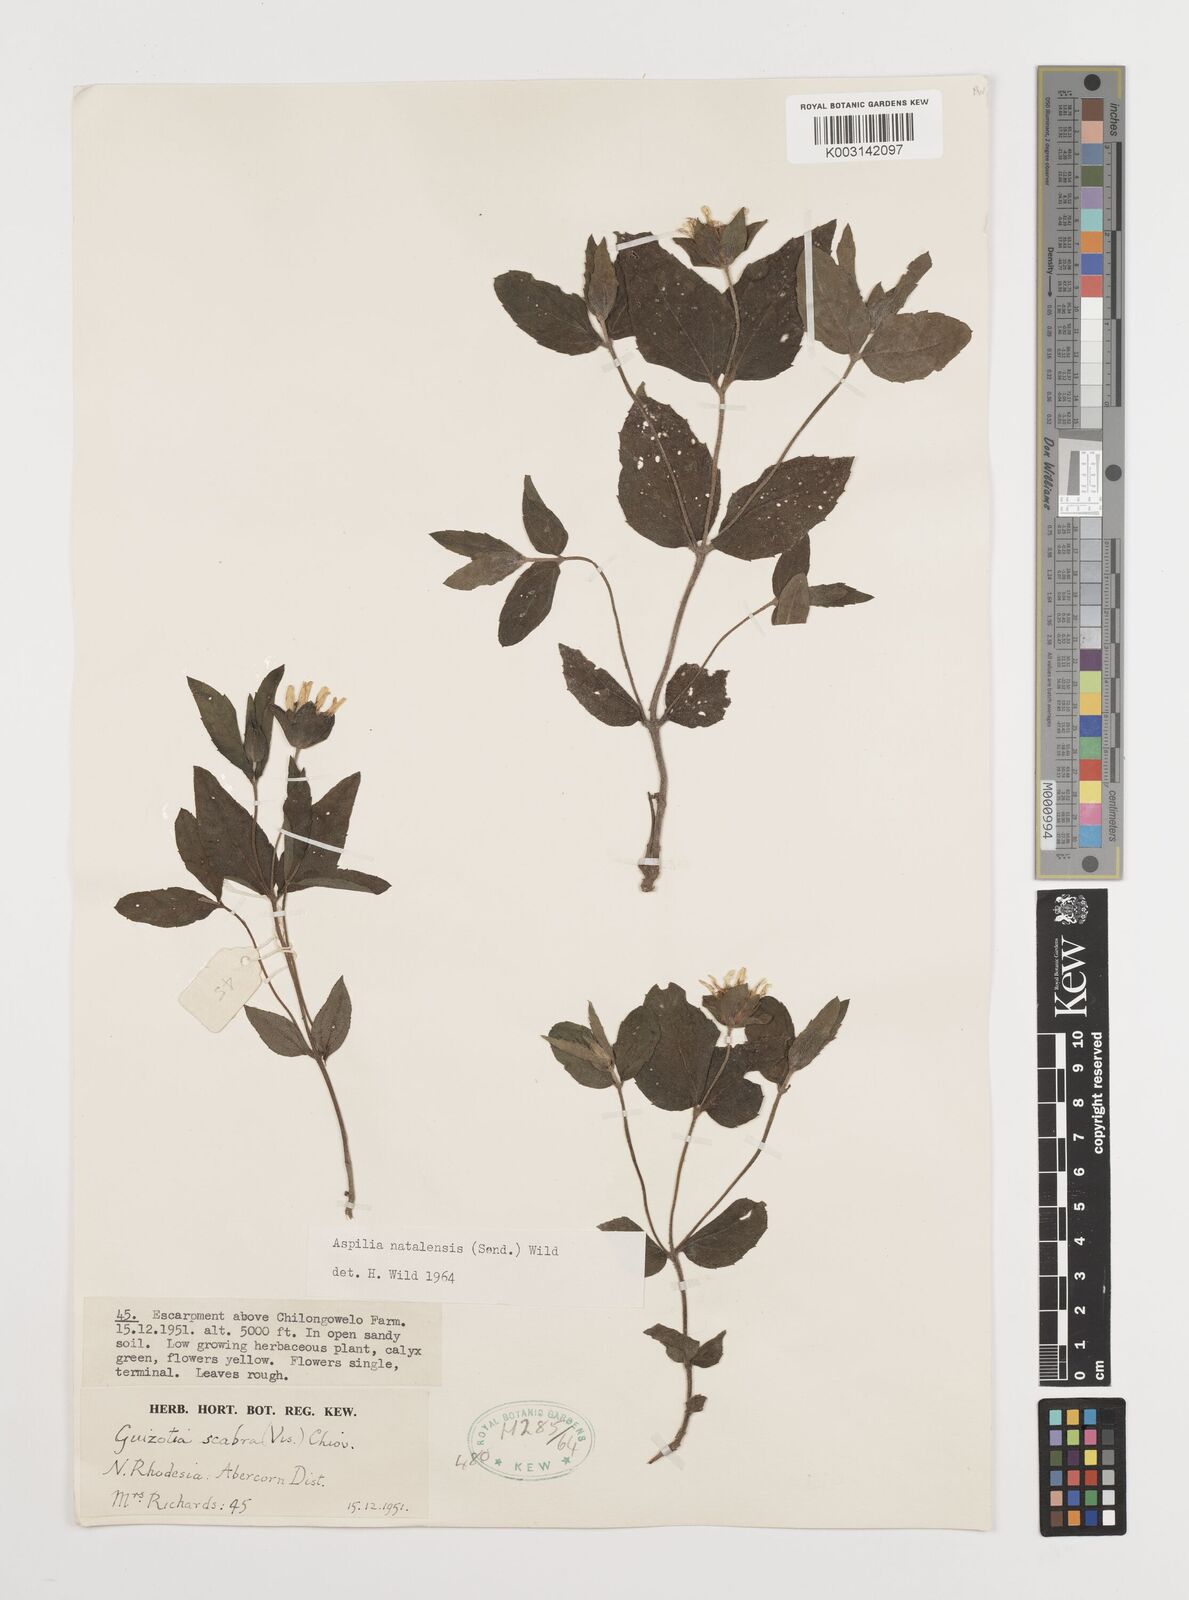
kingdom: Plantae
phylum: Tracheophyta
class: Magnoliopsida
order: Asterales
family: Asteraceae
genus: Aspilia
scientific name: Aspilia angolensis
